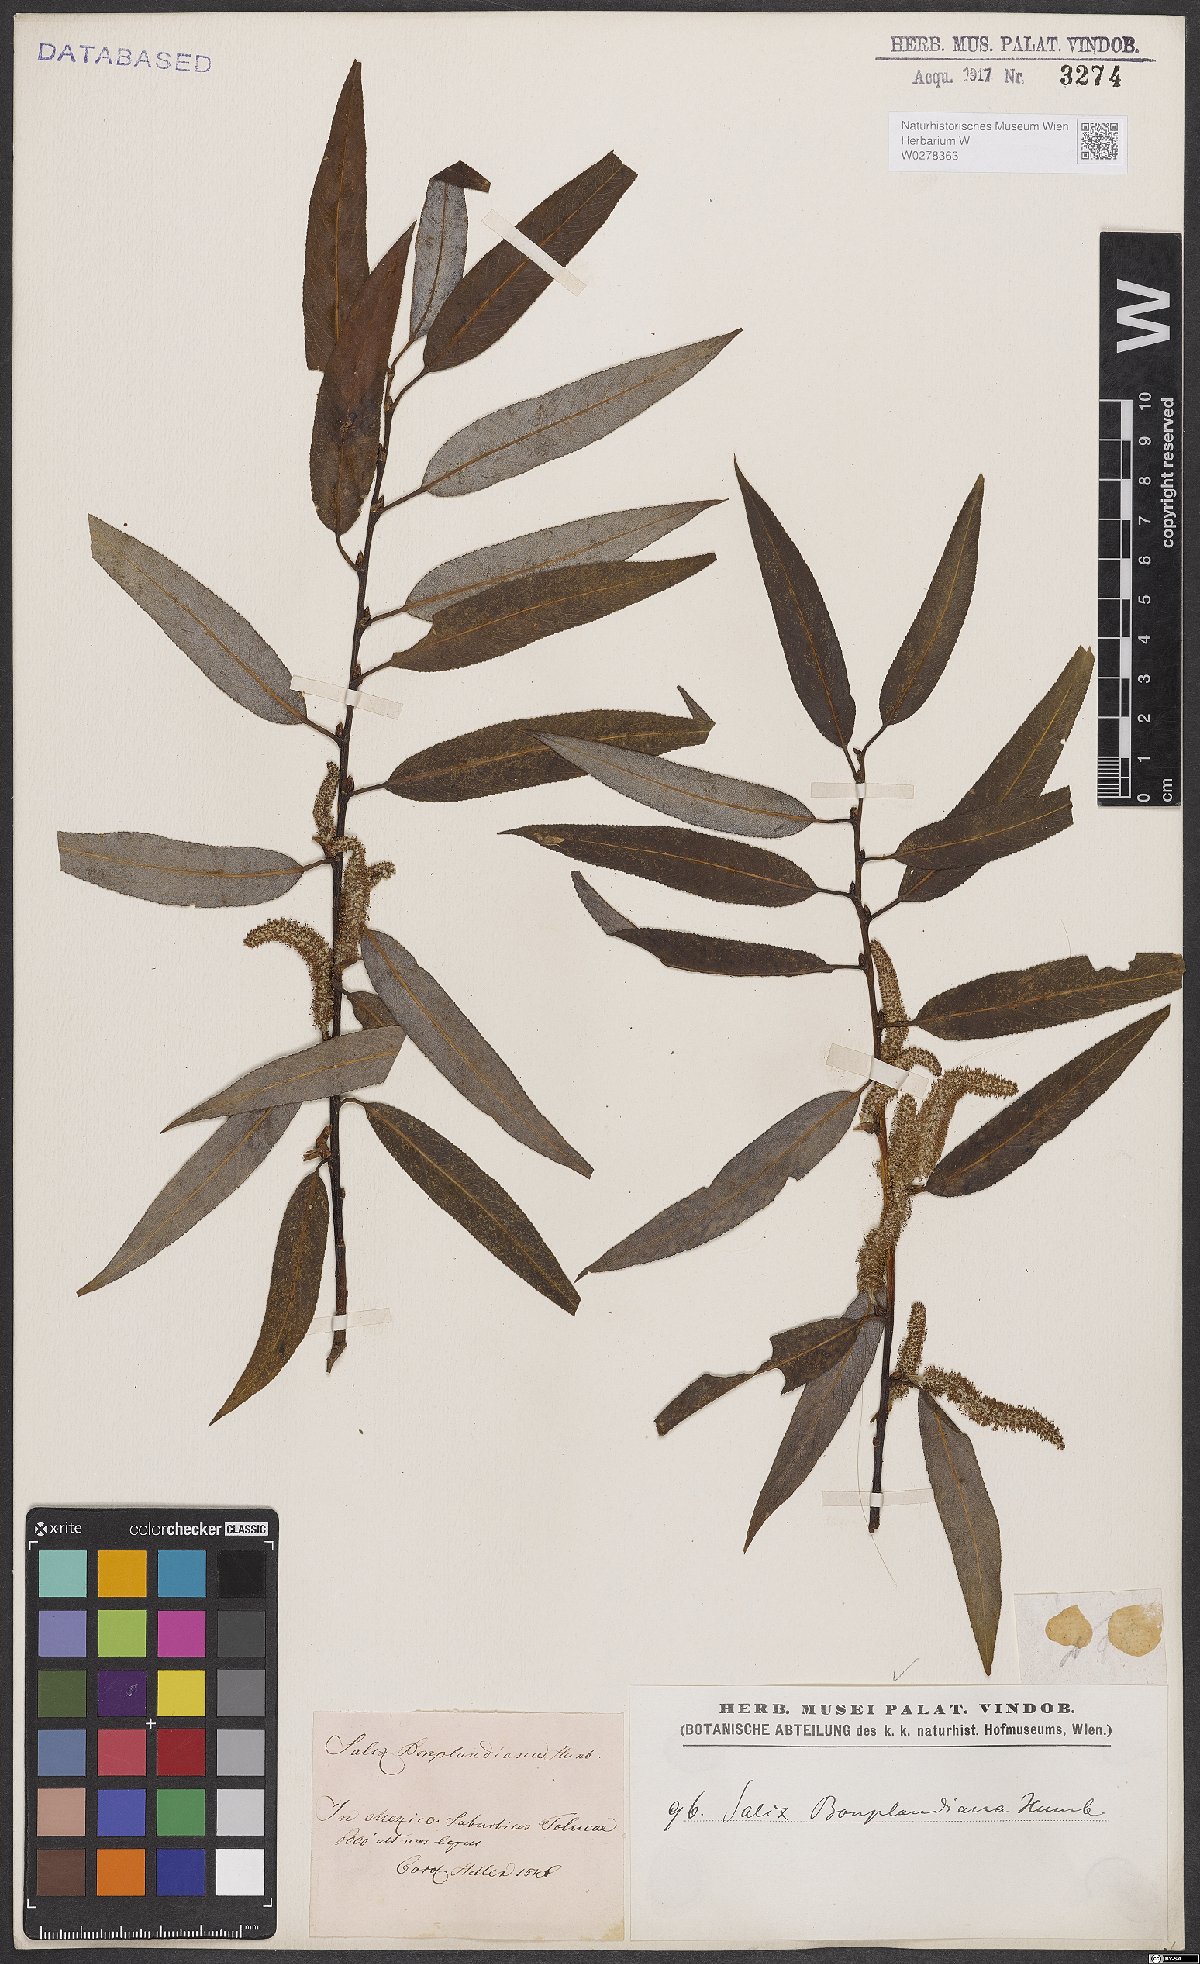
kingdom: Plantae
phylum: Tracheophyta
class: Magnoliopsida
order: Malpighiales
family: Salicaceae
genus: Salix
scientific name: Salix bonplandiana
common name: Bonpland’s willow
